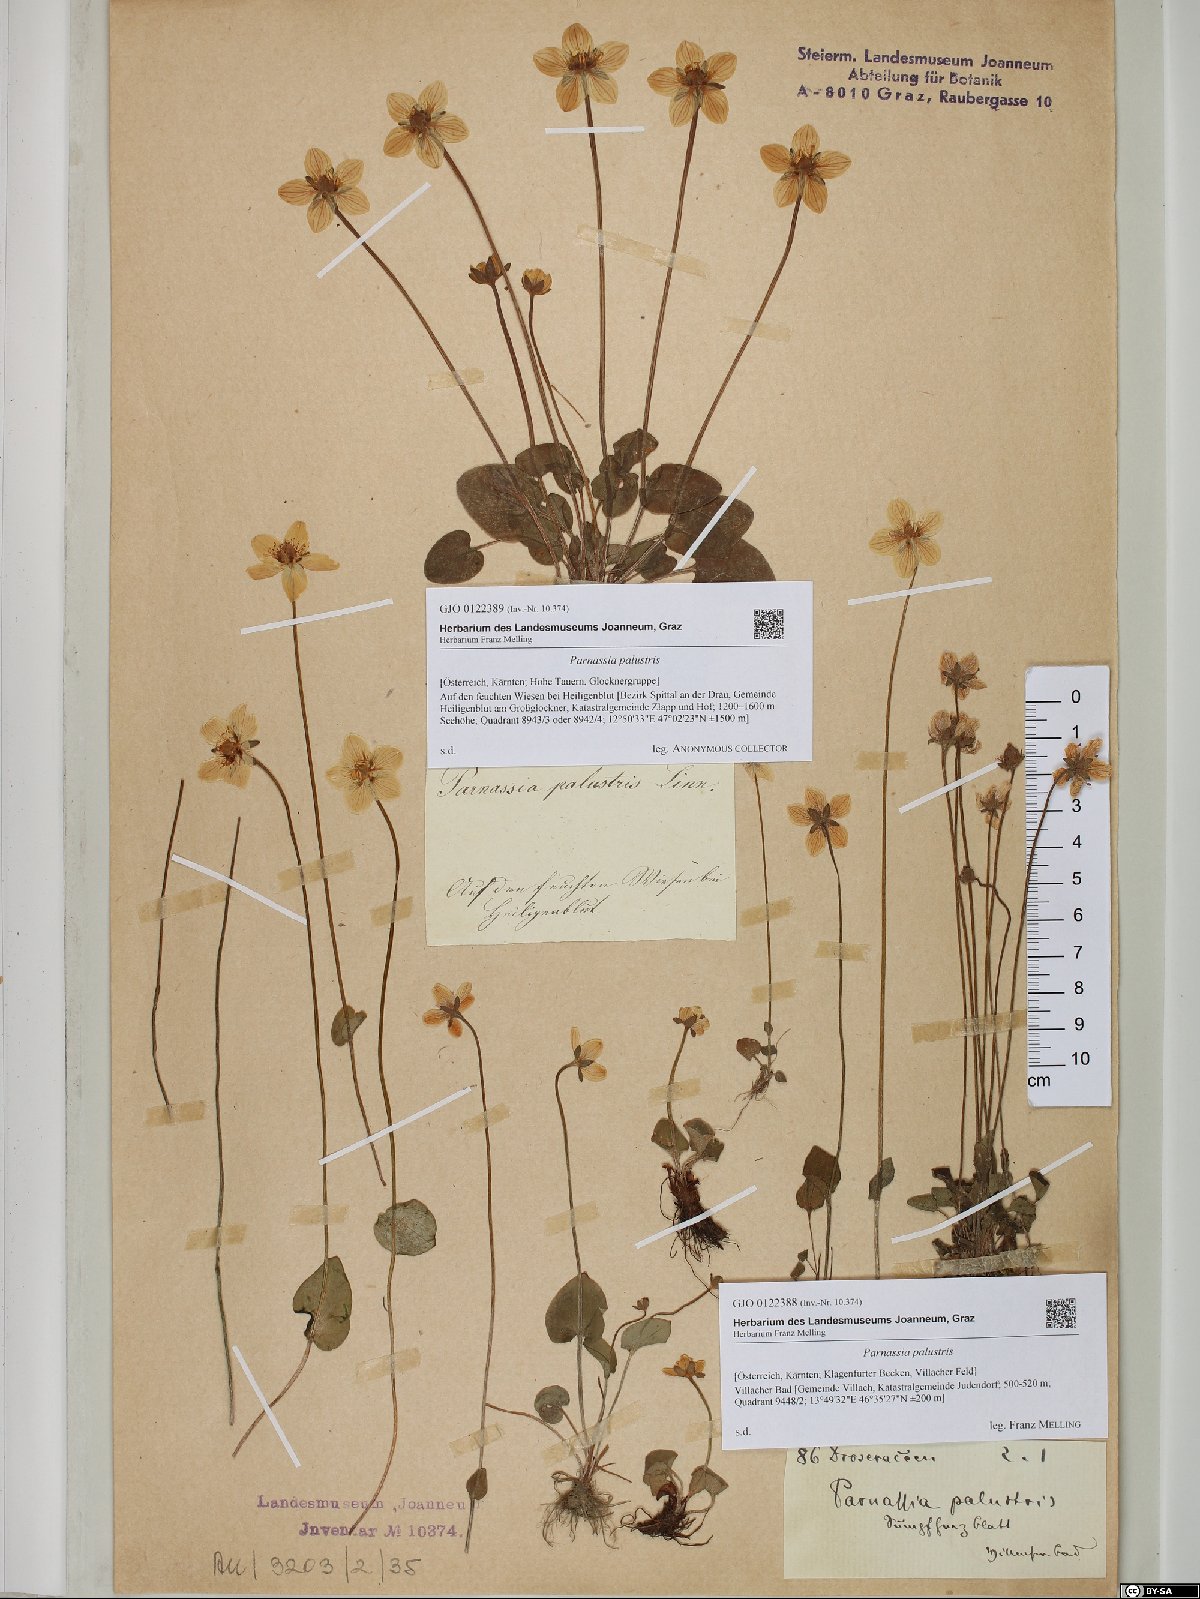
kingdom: Plantae
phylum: Tracheophyta
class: Magnoliopsida
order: Celastrales
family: Parnassiaceae
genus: Parnassia
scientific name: Parnassia palustris
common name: Grass-of-parnassus
